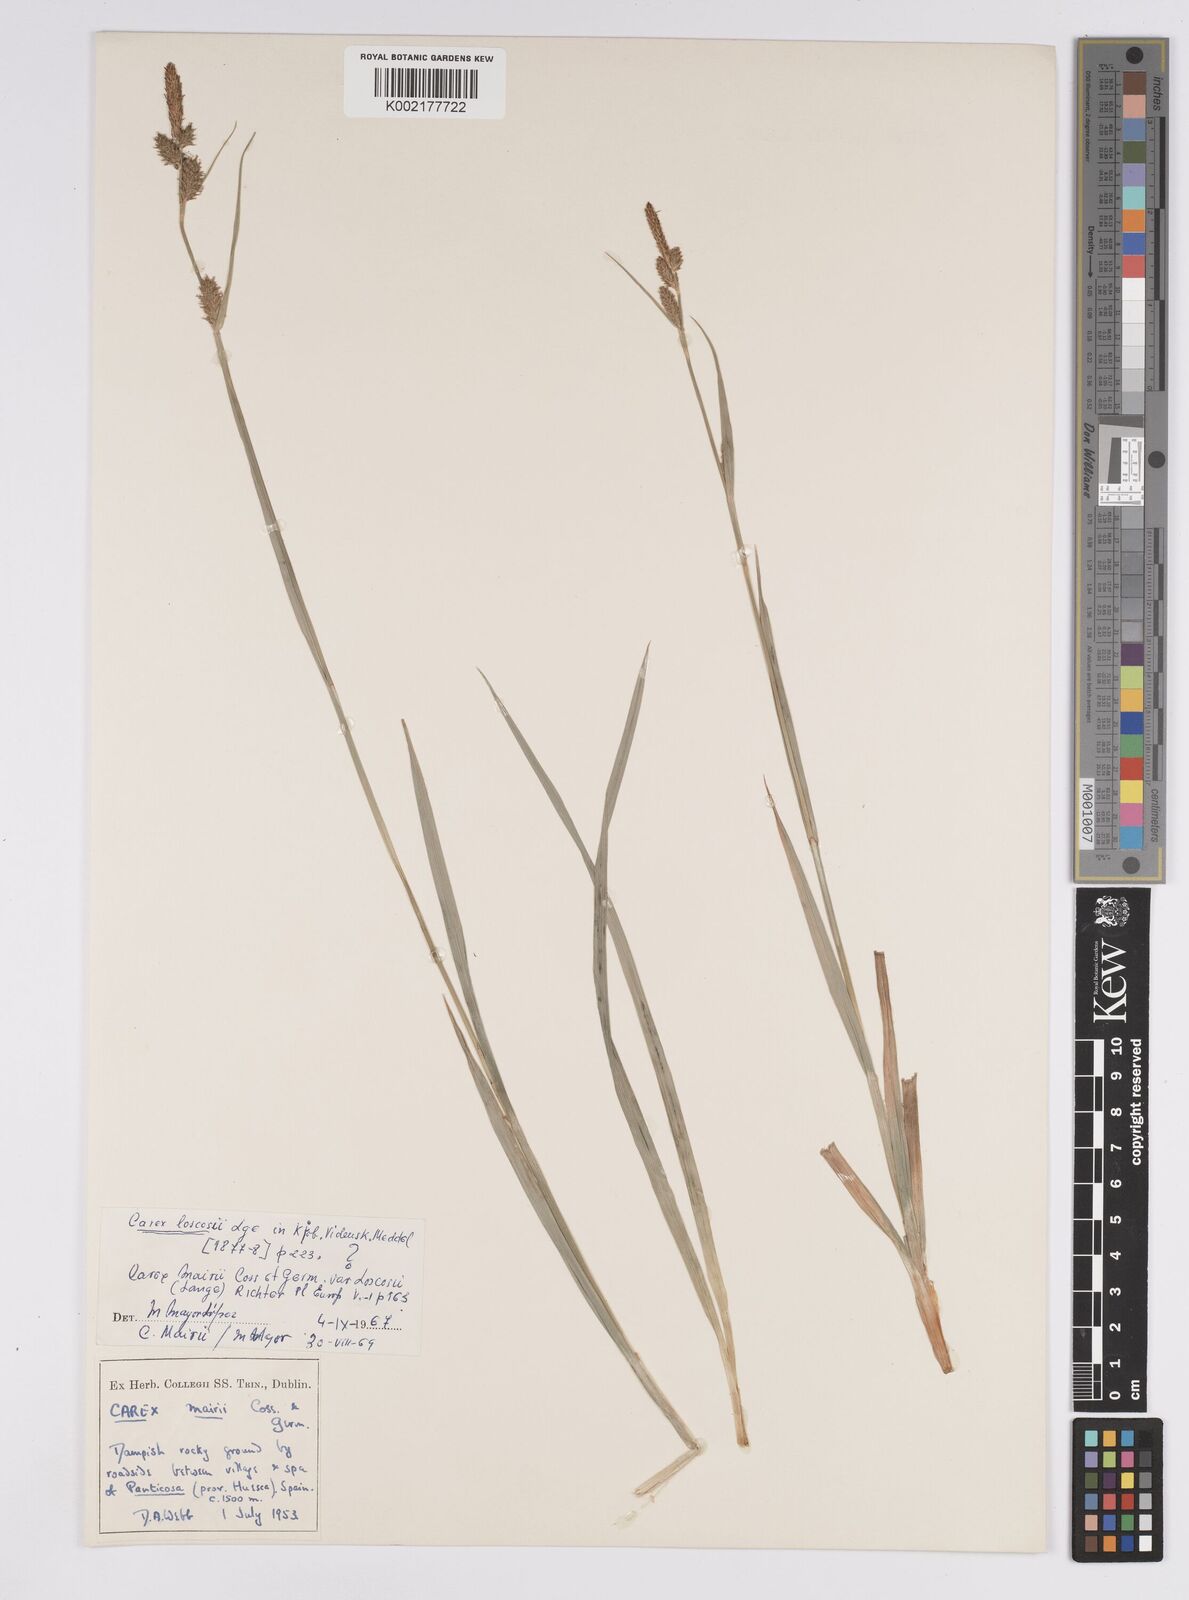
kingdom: Plantae
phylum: Tracheophyta
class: Liliopsida
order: Poales
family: Cyperaceae
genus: Carex
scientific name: Carex mairei
